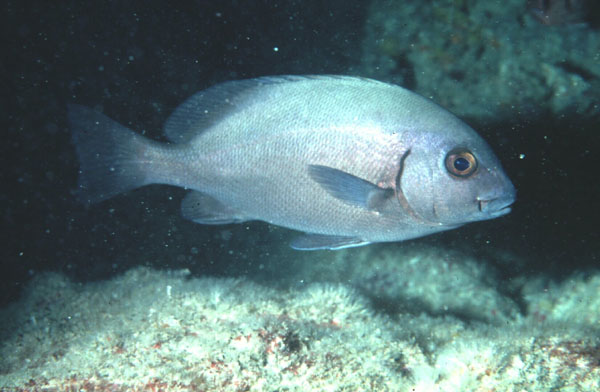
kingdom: Animalia
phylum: Chordata
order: Perciformes
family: Haemulidae
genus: Plectorhinchus
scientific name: Plectorhinchus
